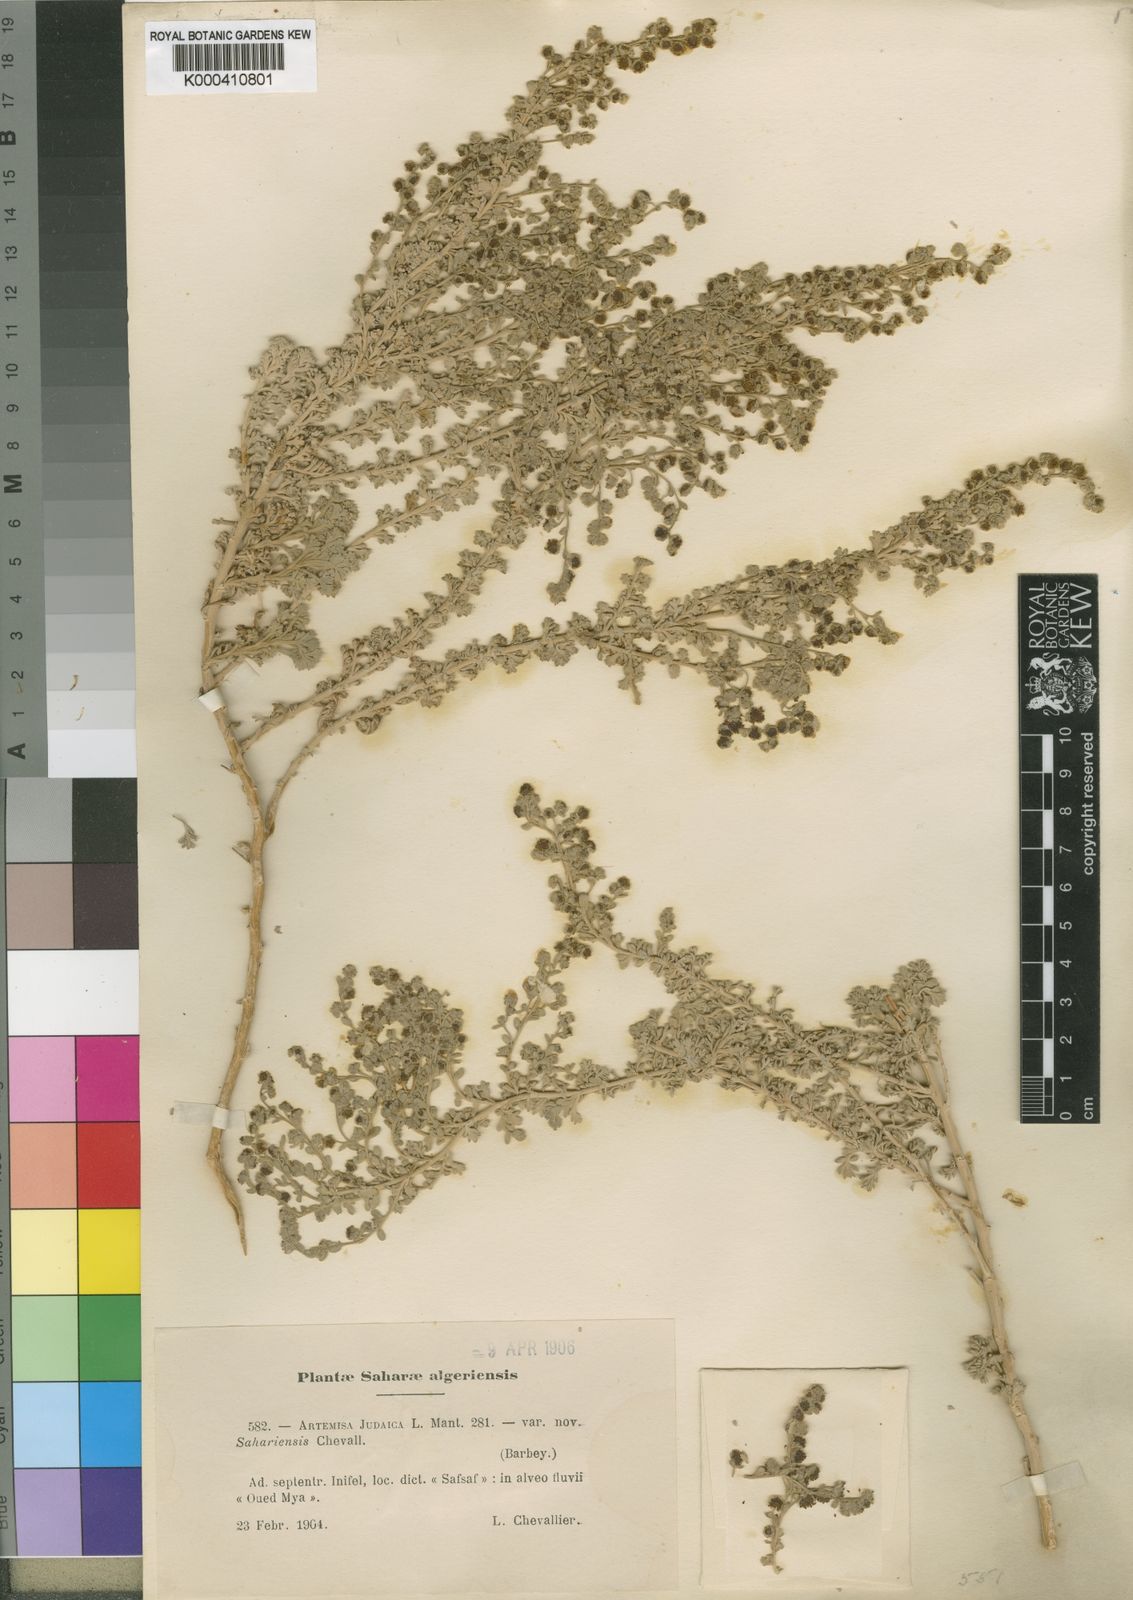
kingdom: Plantae
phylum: Tracheophyta
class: Magnoliopsida
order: Asterales
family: Asteraceae
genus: Artemisia
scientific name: Artemisia judaica
